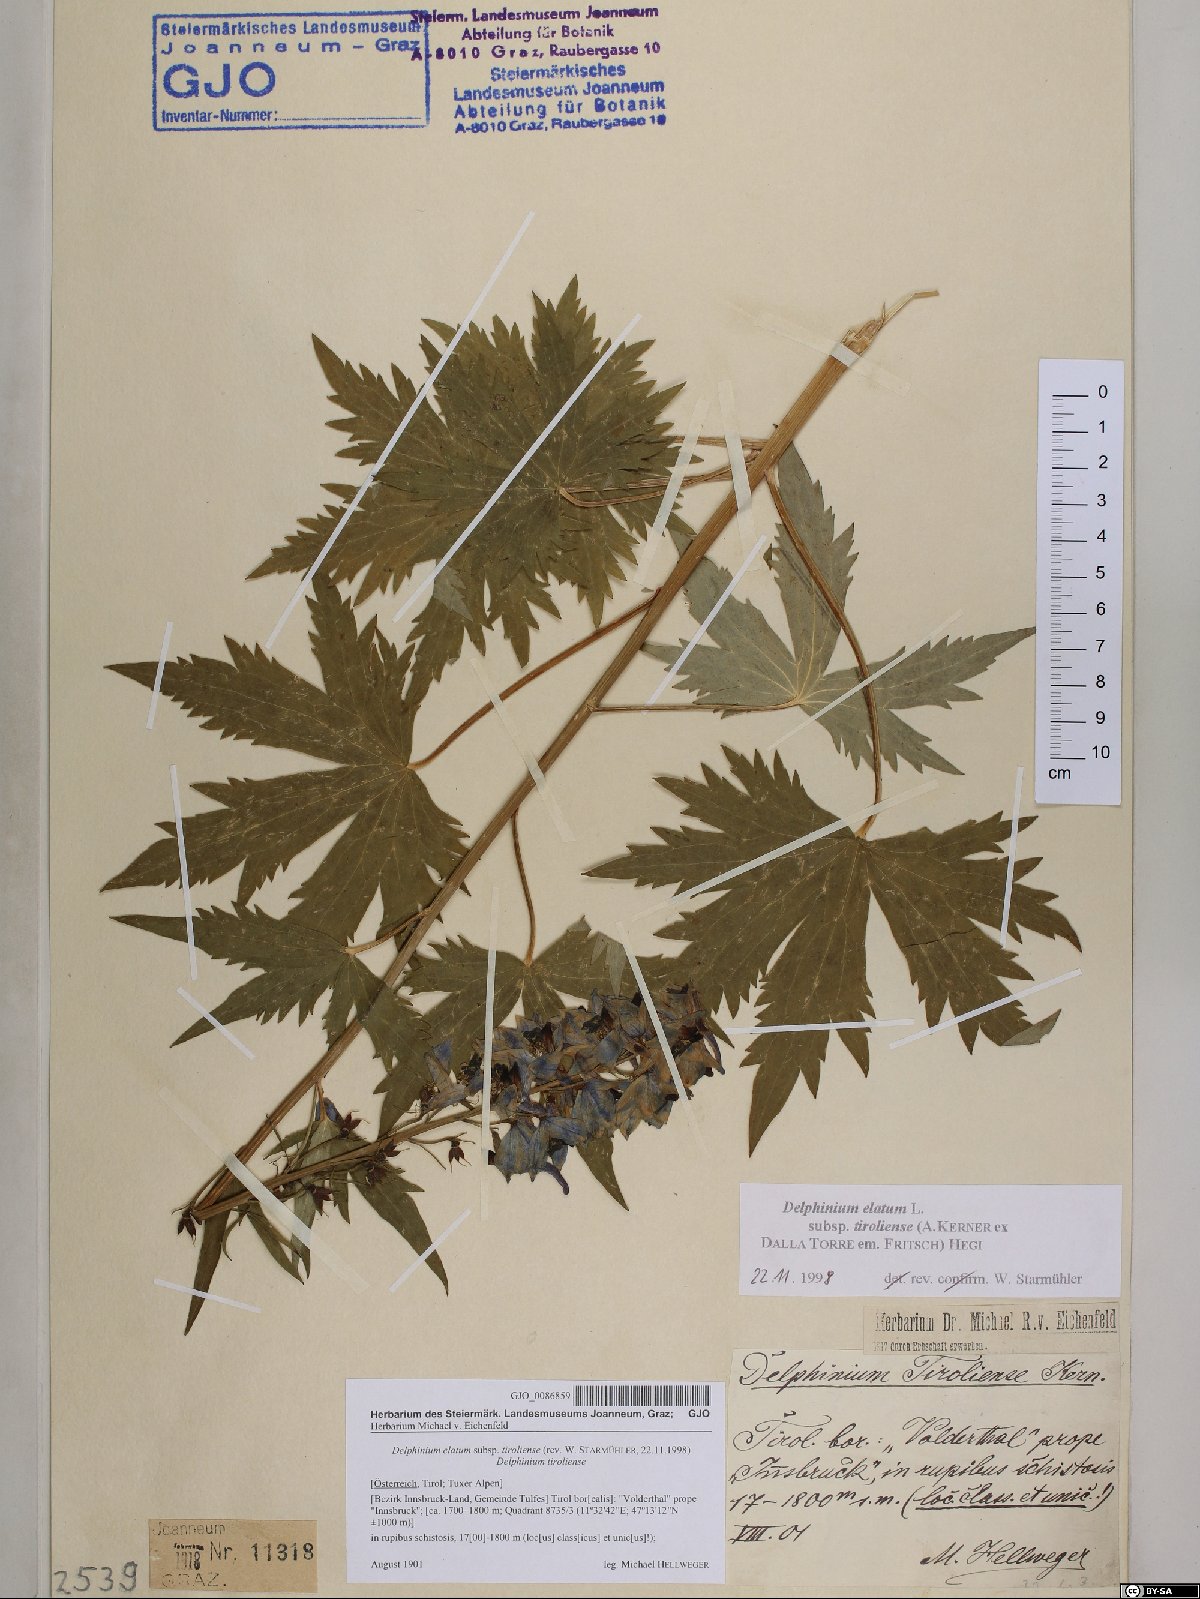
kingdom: Plantae
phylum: Tracheophyta
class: Magnoliopsida
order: Ranunculales
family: Ranunculaceae
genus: Delphinium
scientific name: Delphinium elatum
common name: Candle larkspur
